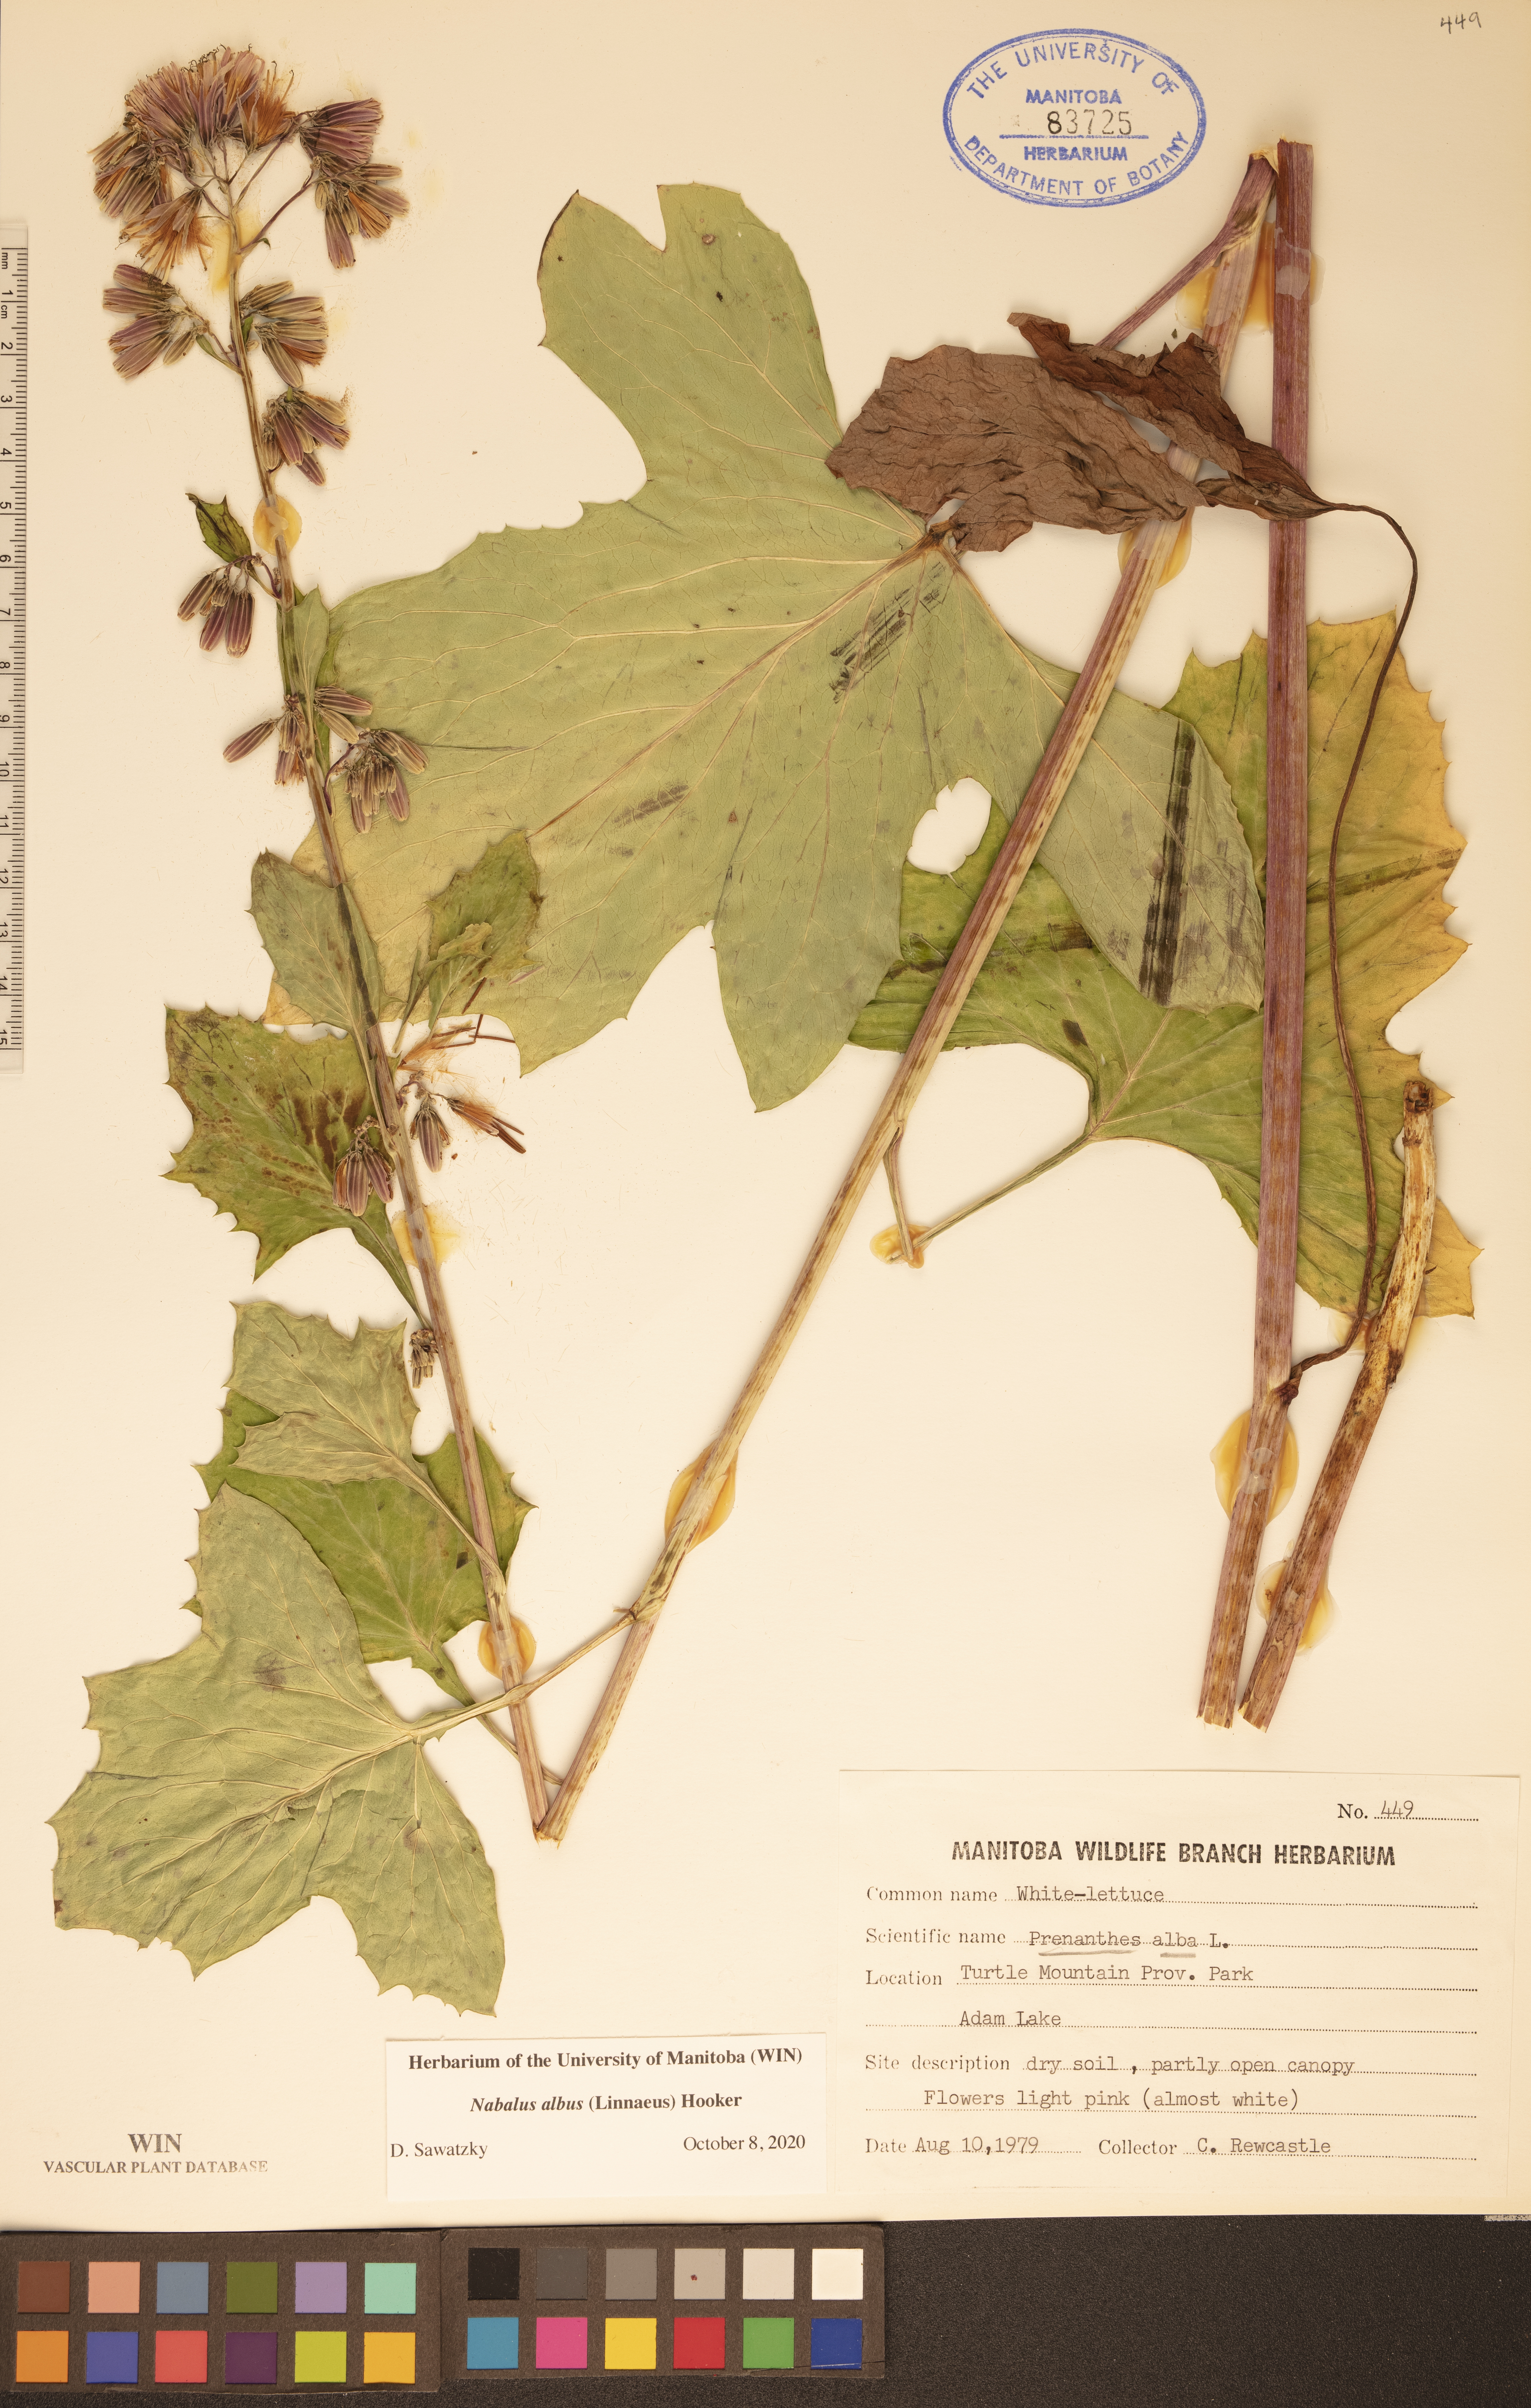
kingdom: Plantae
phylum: Tracheophyta
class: Magnoliopsida
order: Asterales
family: Asteraceae
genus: Nabalus
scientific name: Nabalus albus
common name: White rattlesnakeroot
